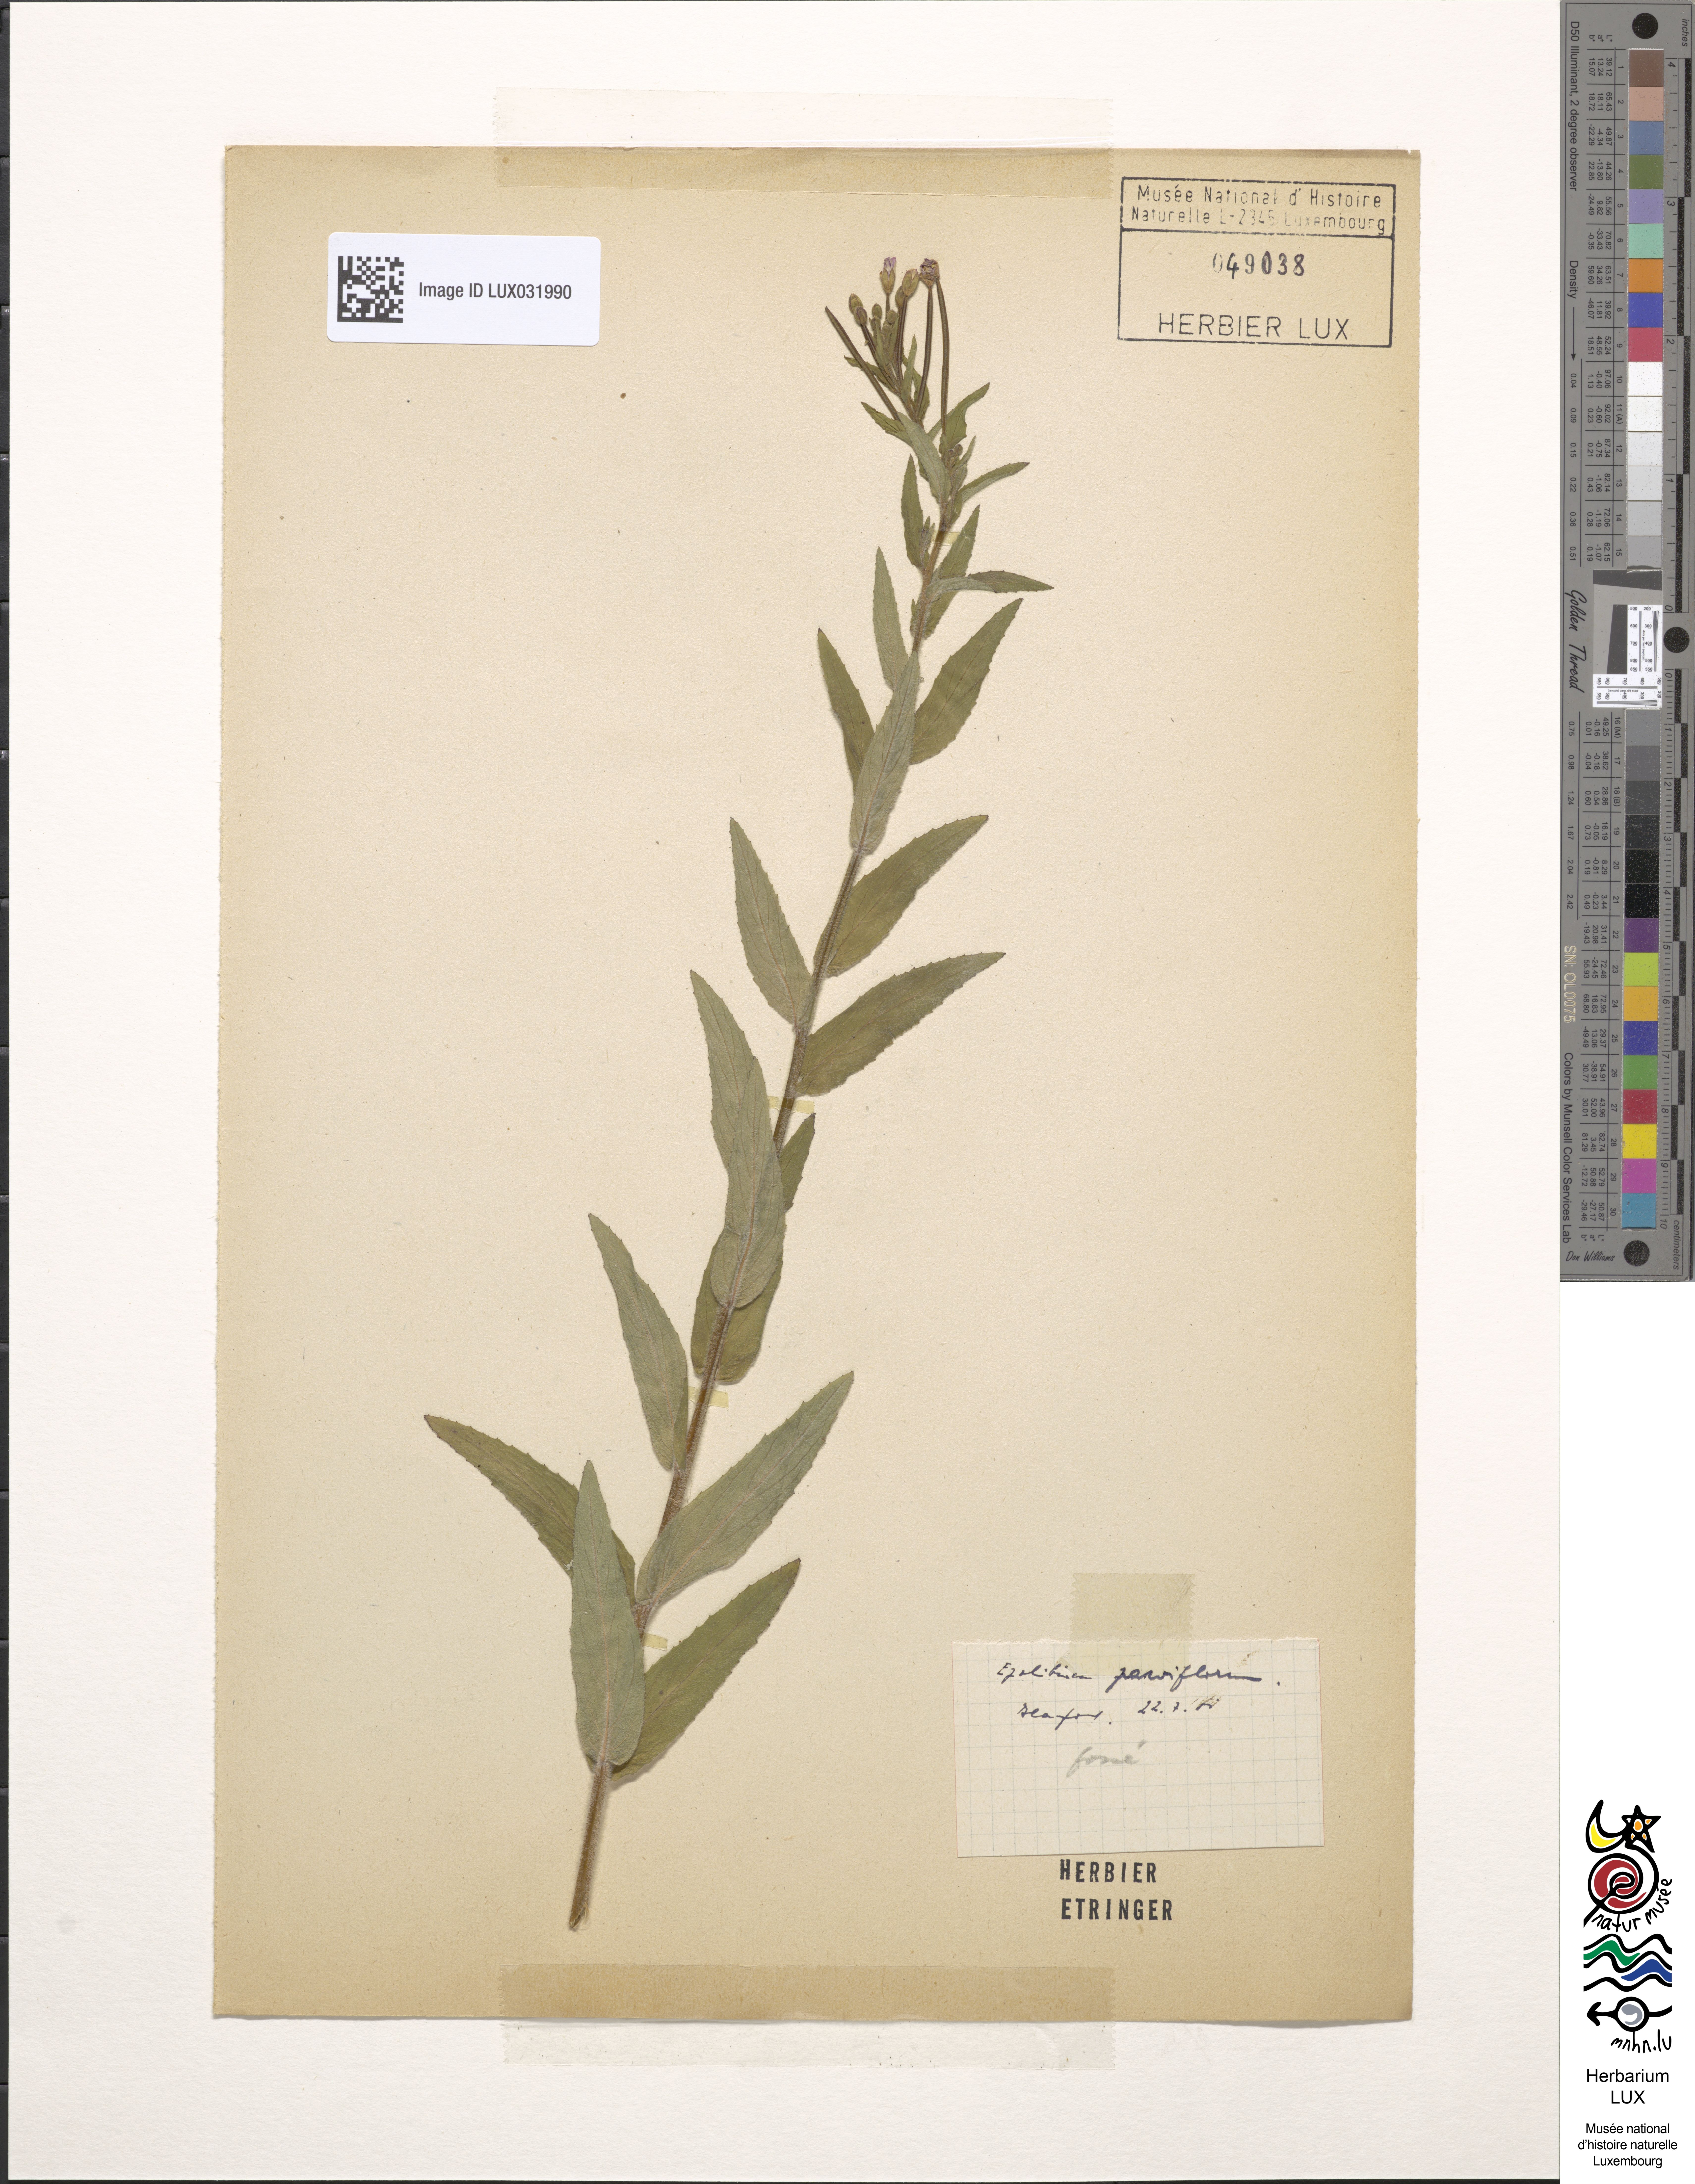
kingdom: Plantae
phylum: Tracheophyta
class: Magnoliopsida
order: Myrtales
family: Onagraceae
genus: Epilobium
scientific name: Epilobium parviflorum
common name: Hoary willowherb
